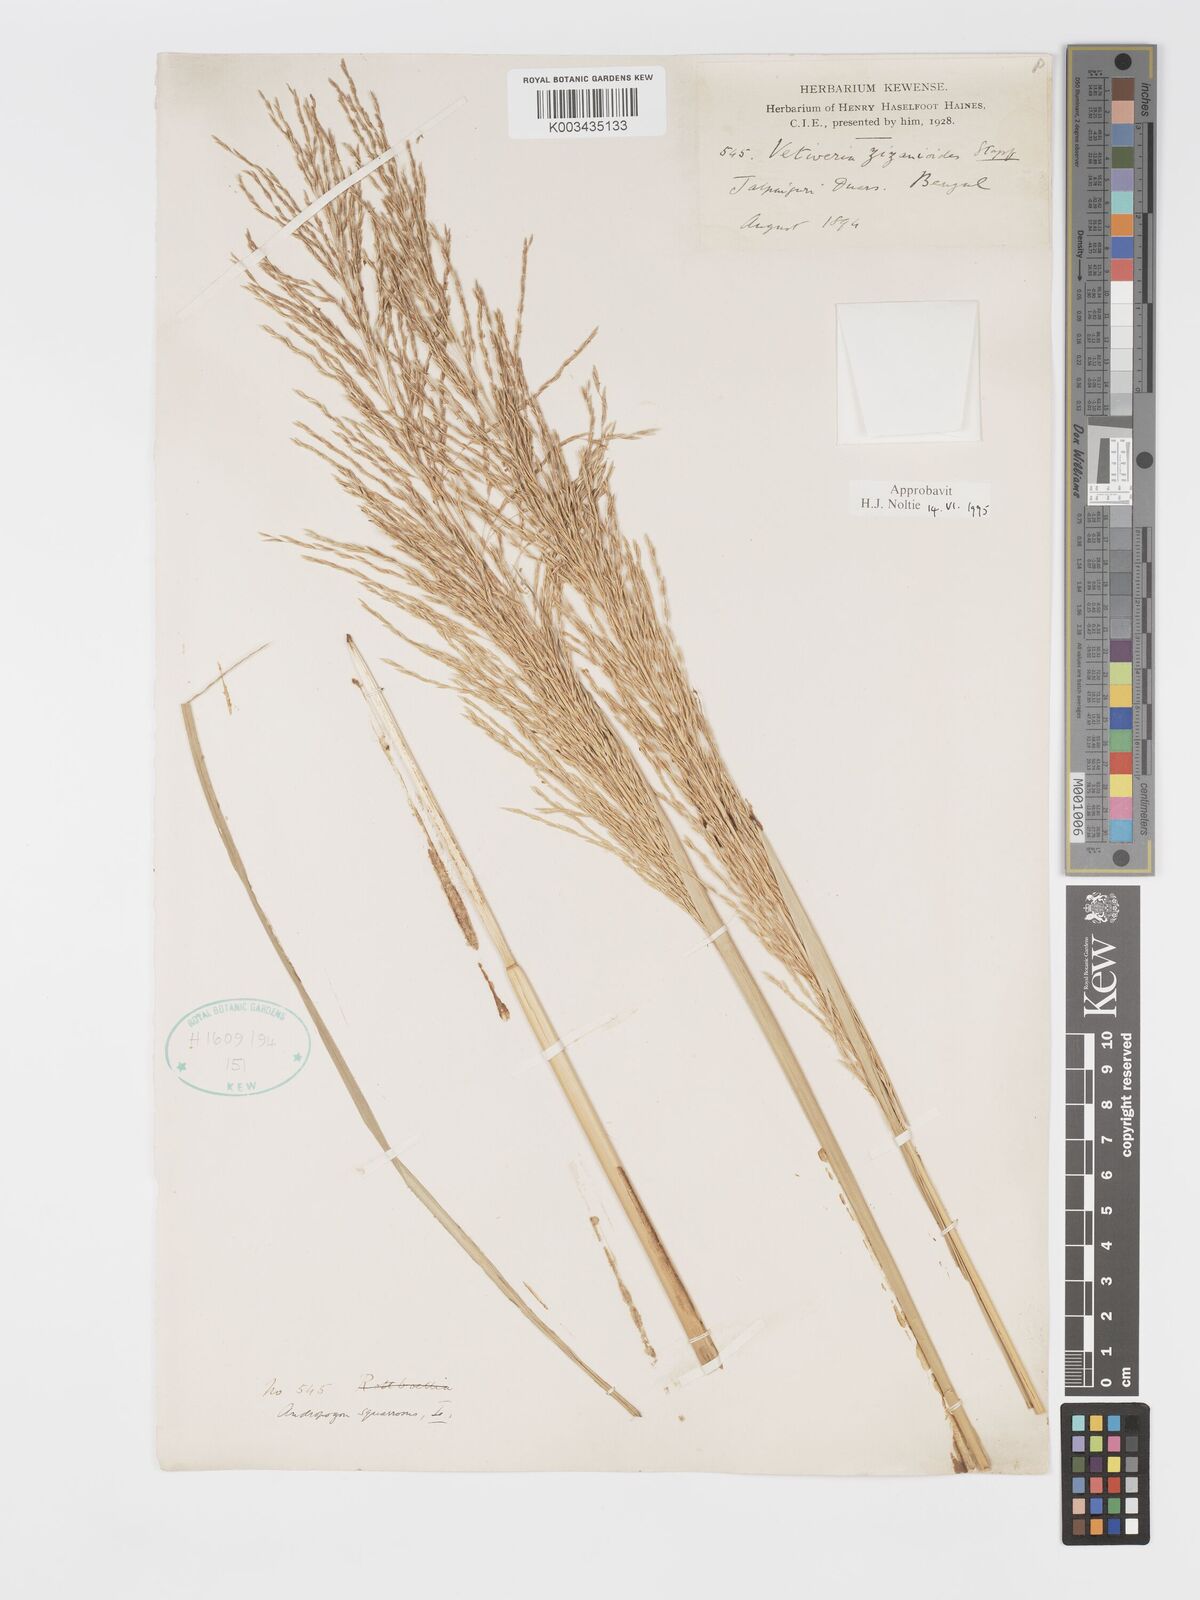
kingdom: Plantae
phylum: Tracheophyta
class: Liliopsida
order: Poales
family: Poaceae
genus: Chrysopogon
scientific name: Chrysopogon zizanioides
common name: False beardgrass
